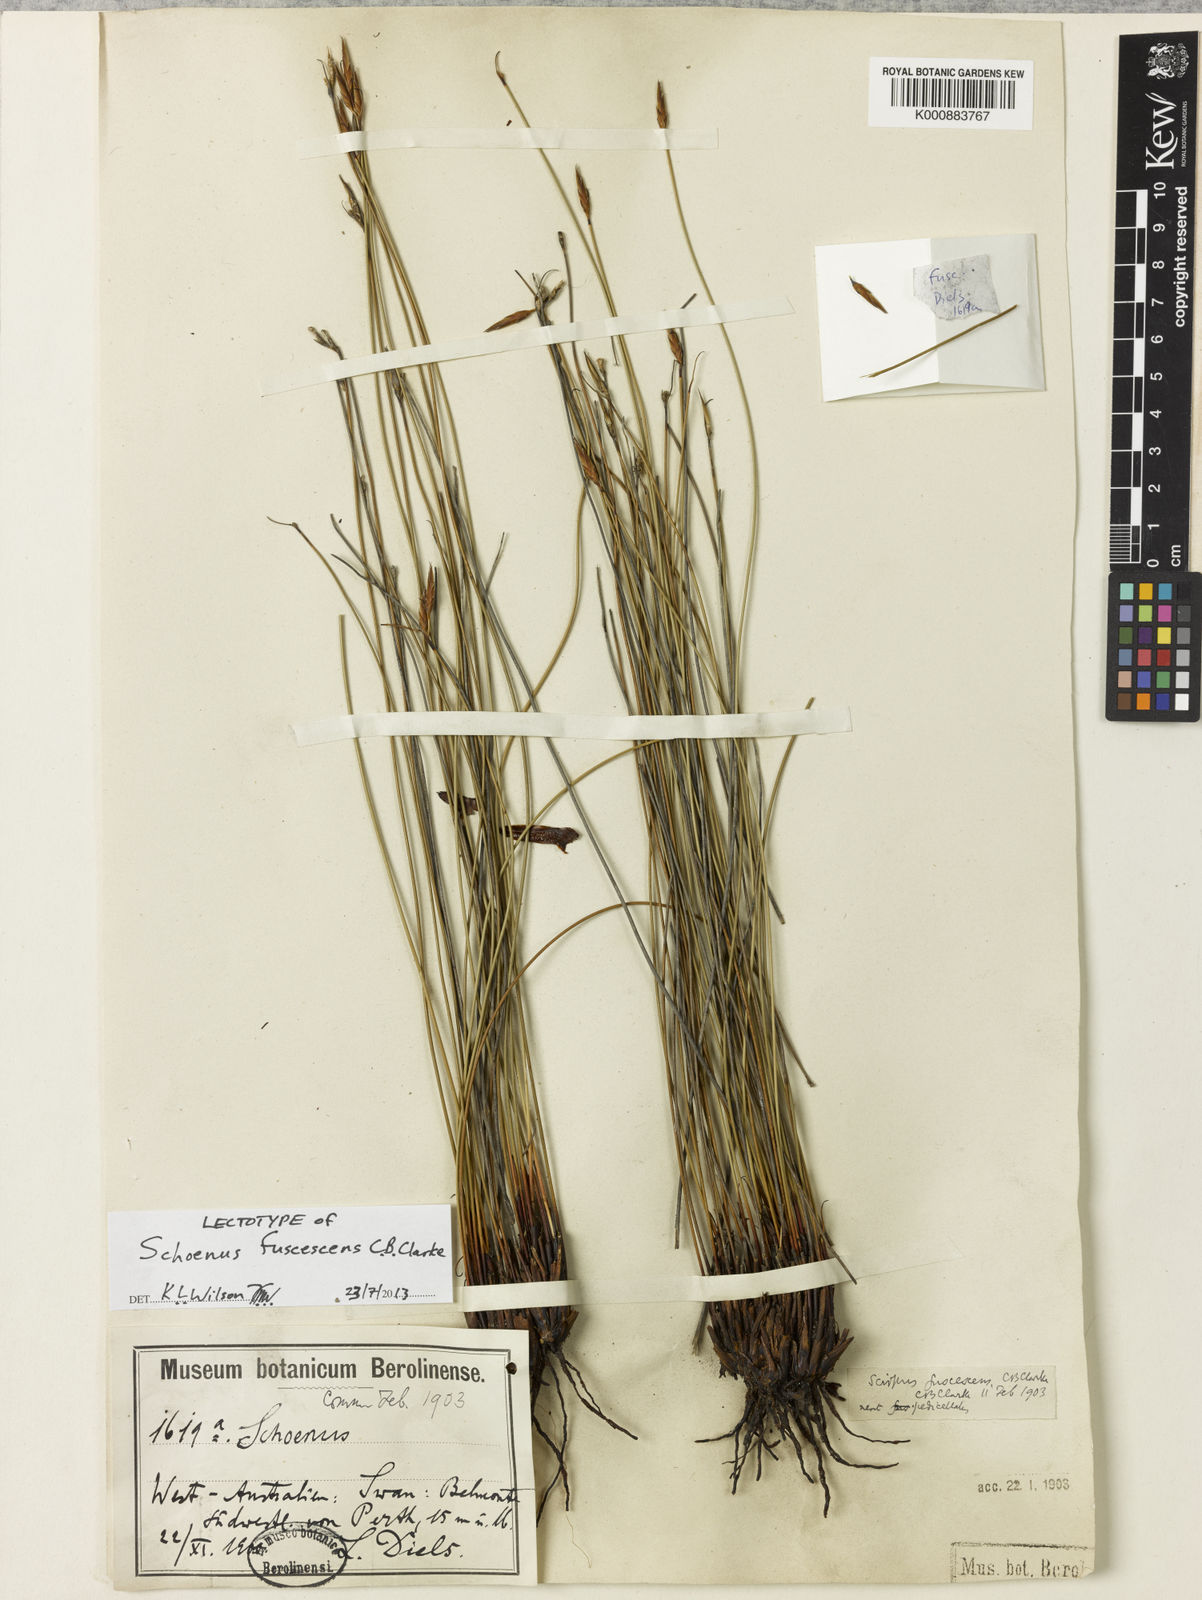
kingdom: Plantae
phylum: Tracheophyta
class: Liliopsida
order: Poales
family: Cyperaceae
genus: Schoenus
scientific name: Schoenus brevisetis
